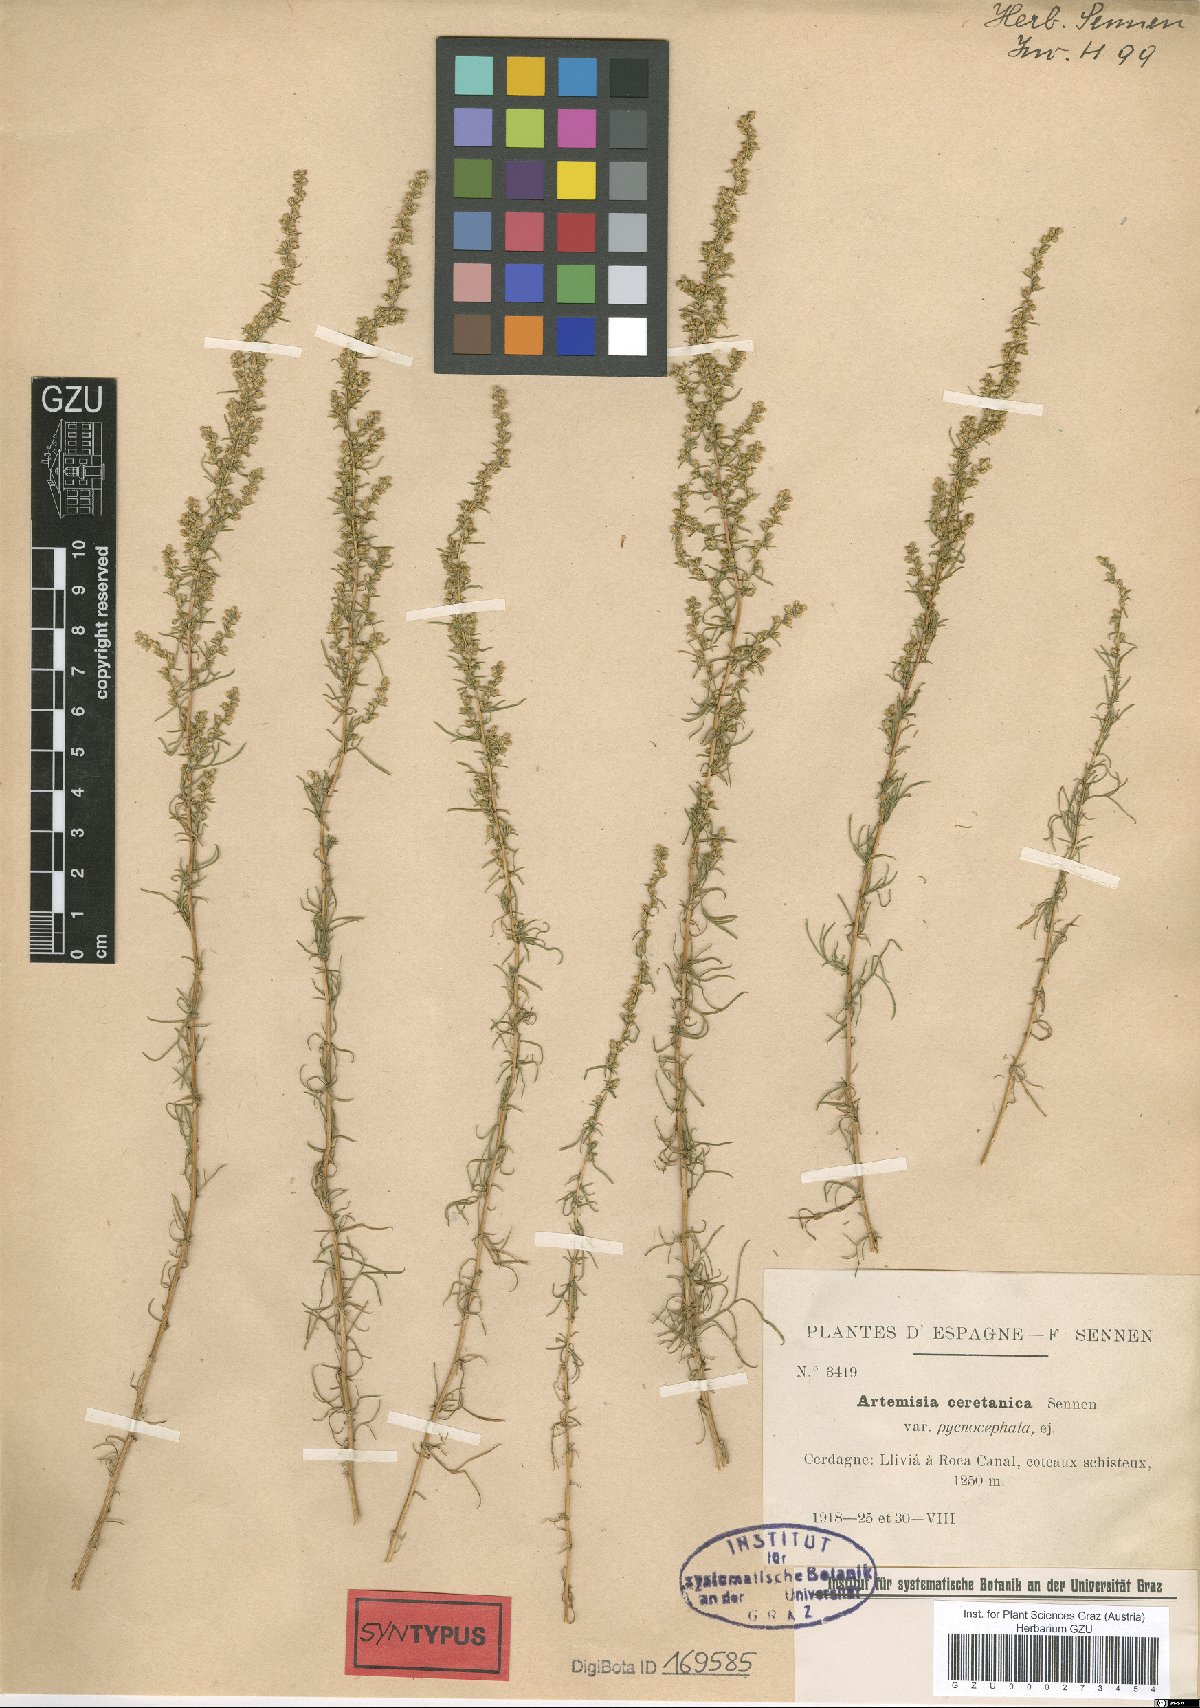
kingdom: Plantae
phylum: Tracheophyta
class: Magnoliopsida
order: Asterales
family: Asteraceae
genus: Artemisia
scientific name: Artemisia ceretana
